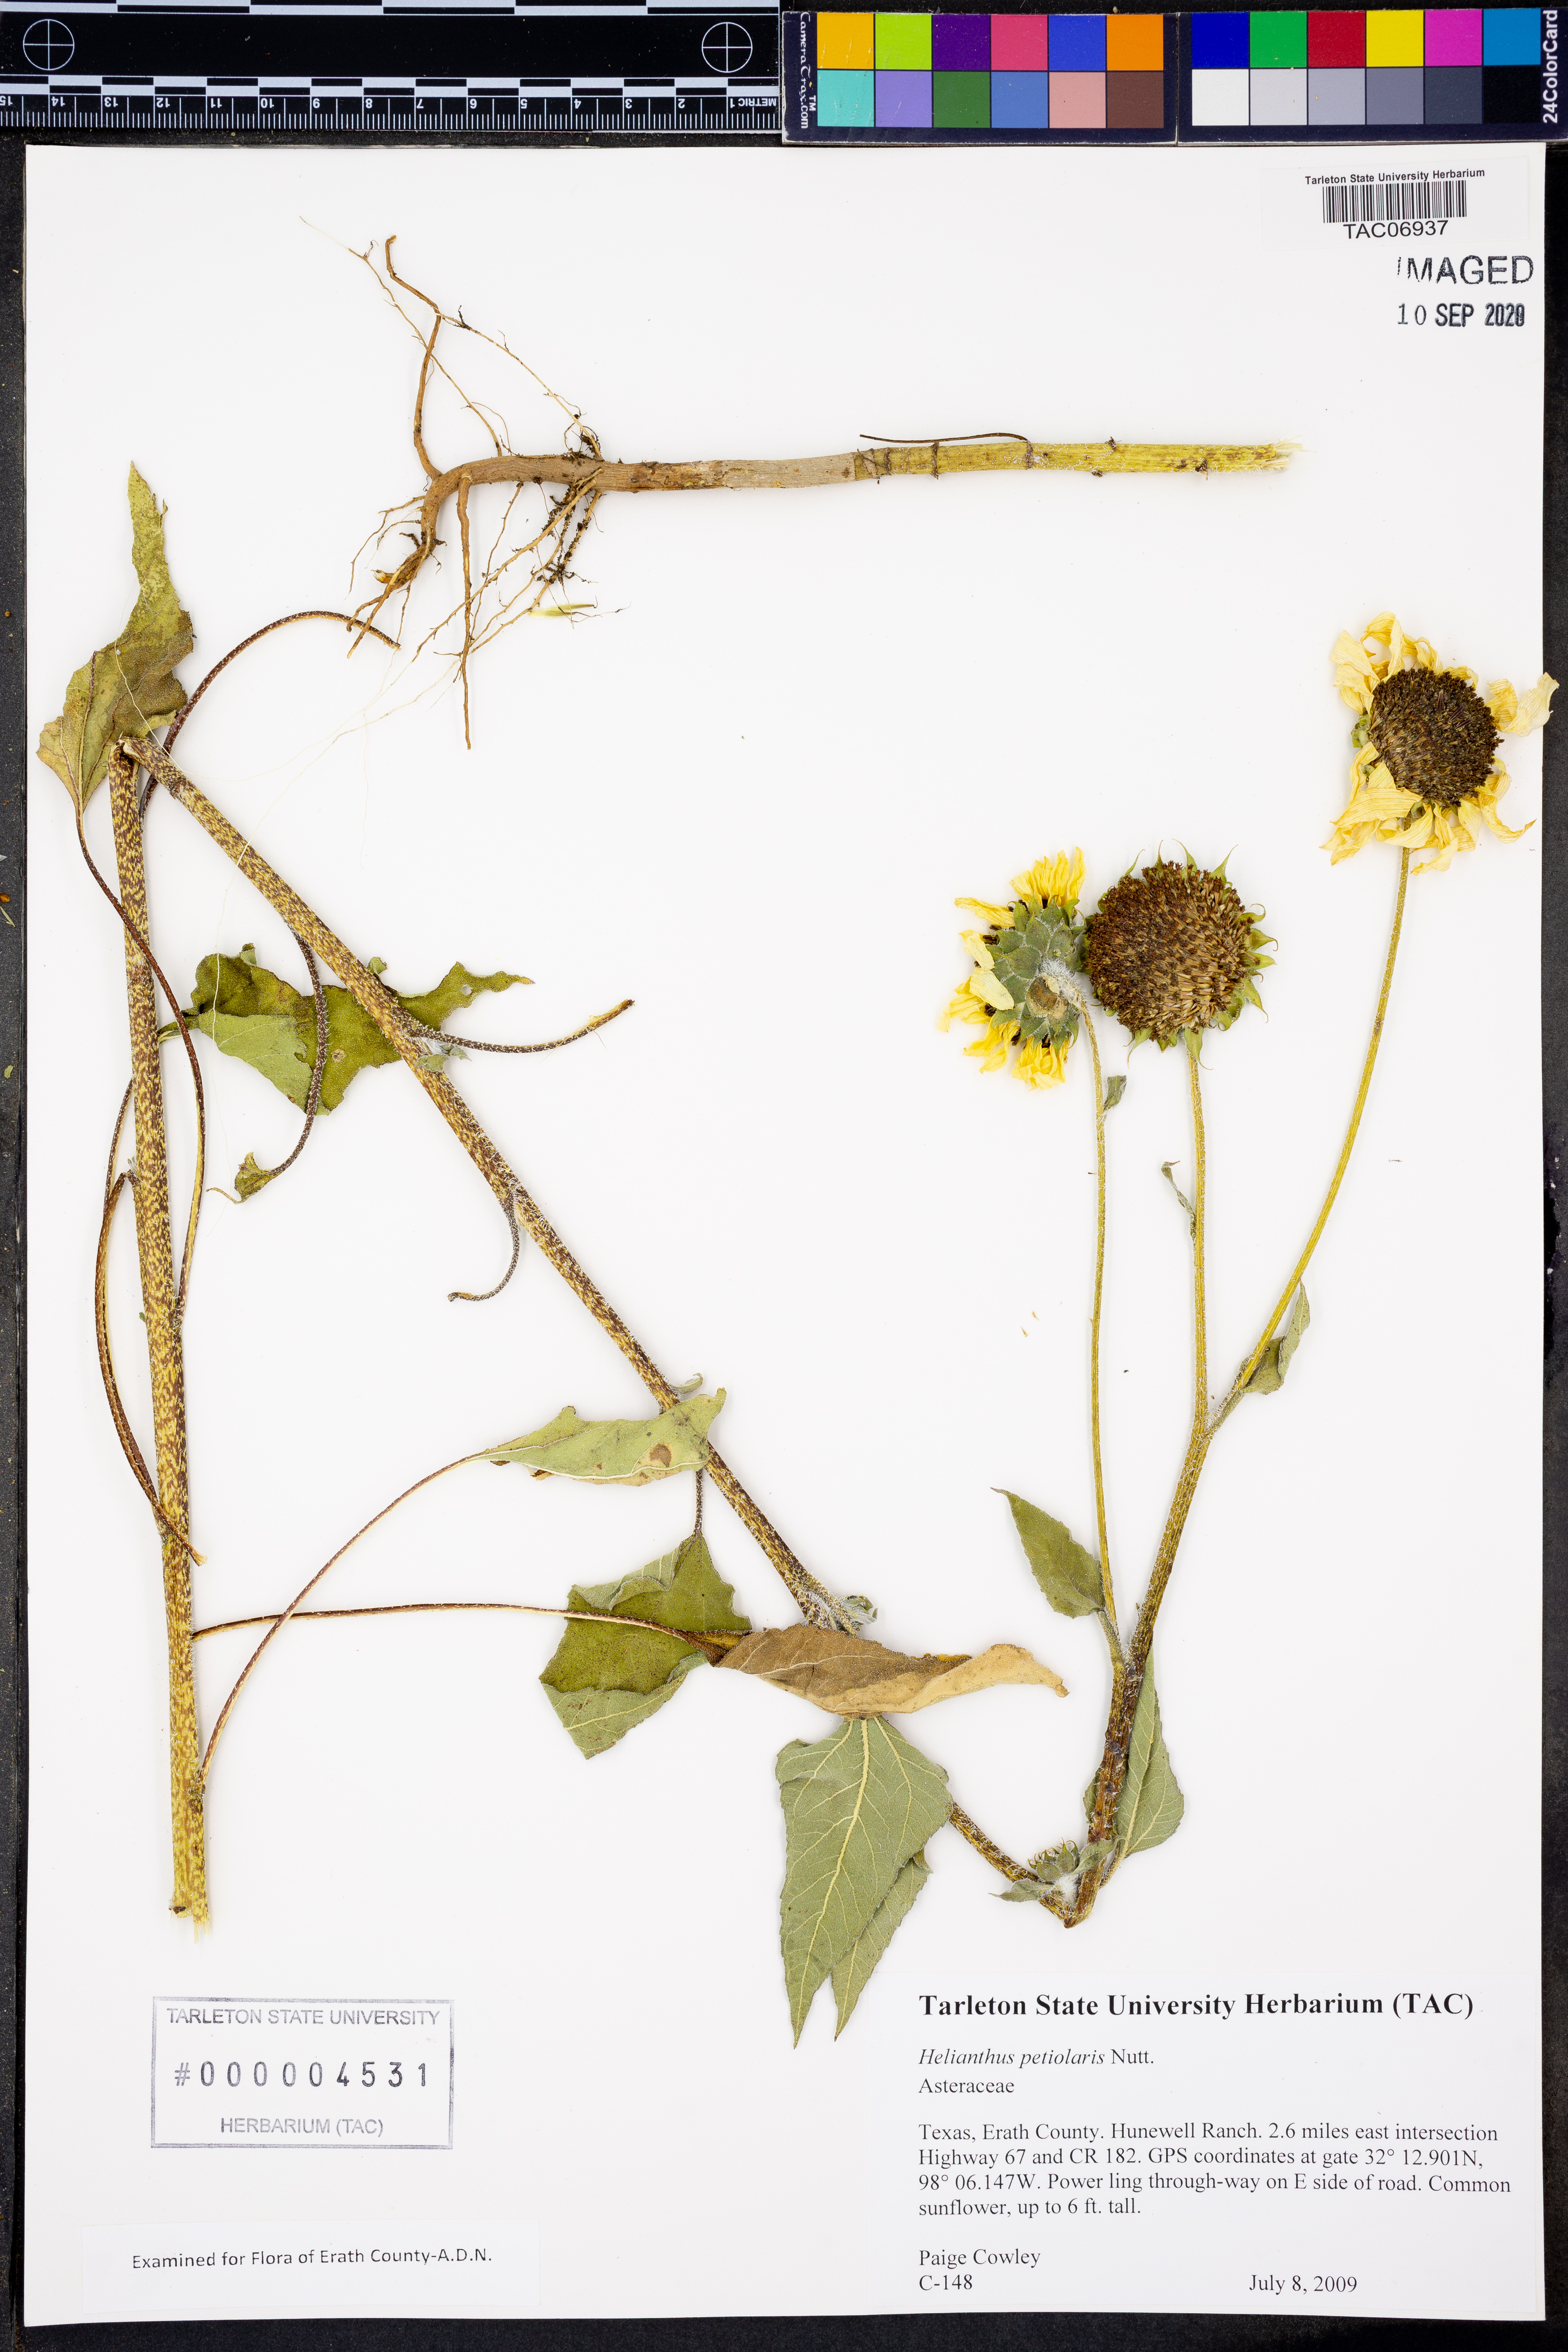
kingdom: Plantae
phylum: Tracheophyta
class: Magnoliopsida
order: Asterales
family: Asteraceae
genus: Helianthus
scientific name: Helianthus petiolaris
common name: Lesser sunflower
